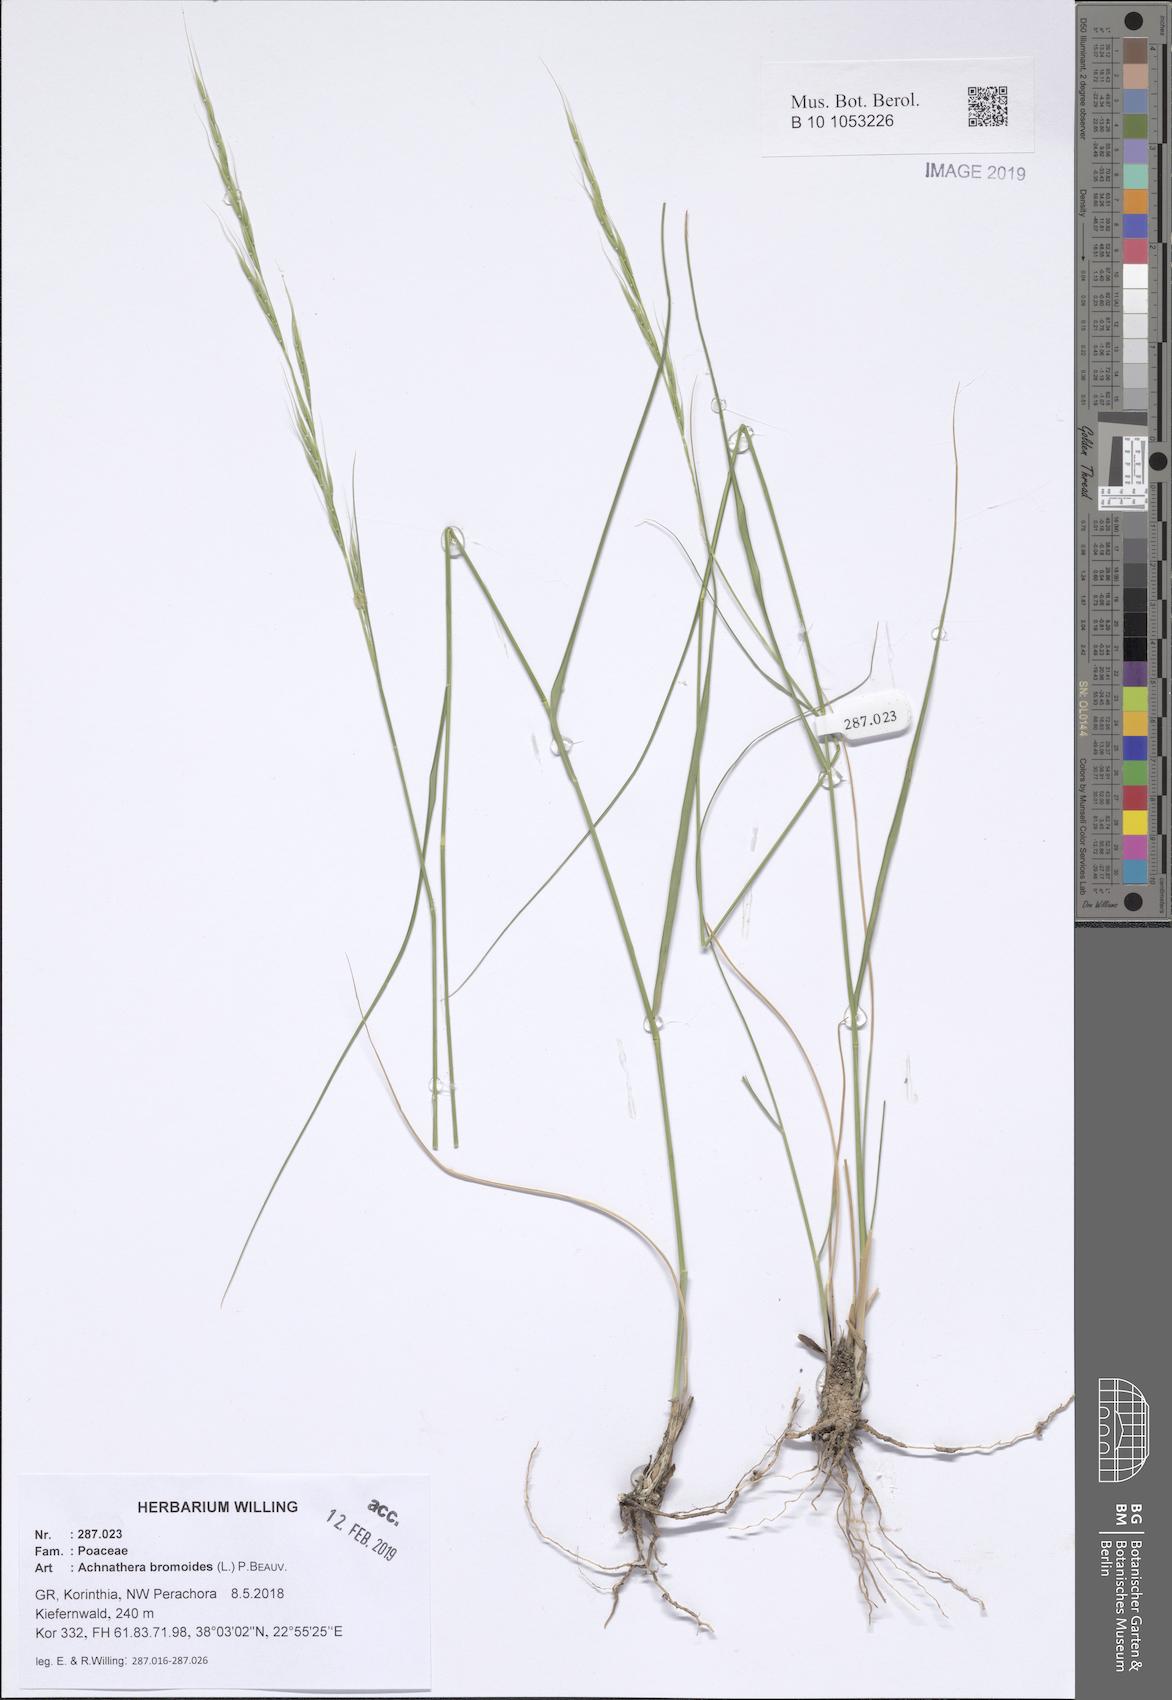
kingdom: Plantae
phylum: Tracheophyta
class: Liliopsida
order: Poales
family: Poaceae
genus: Achnatherum
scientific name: Achnatherum bromoides
